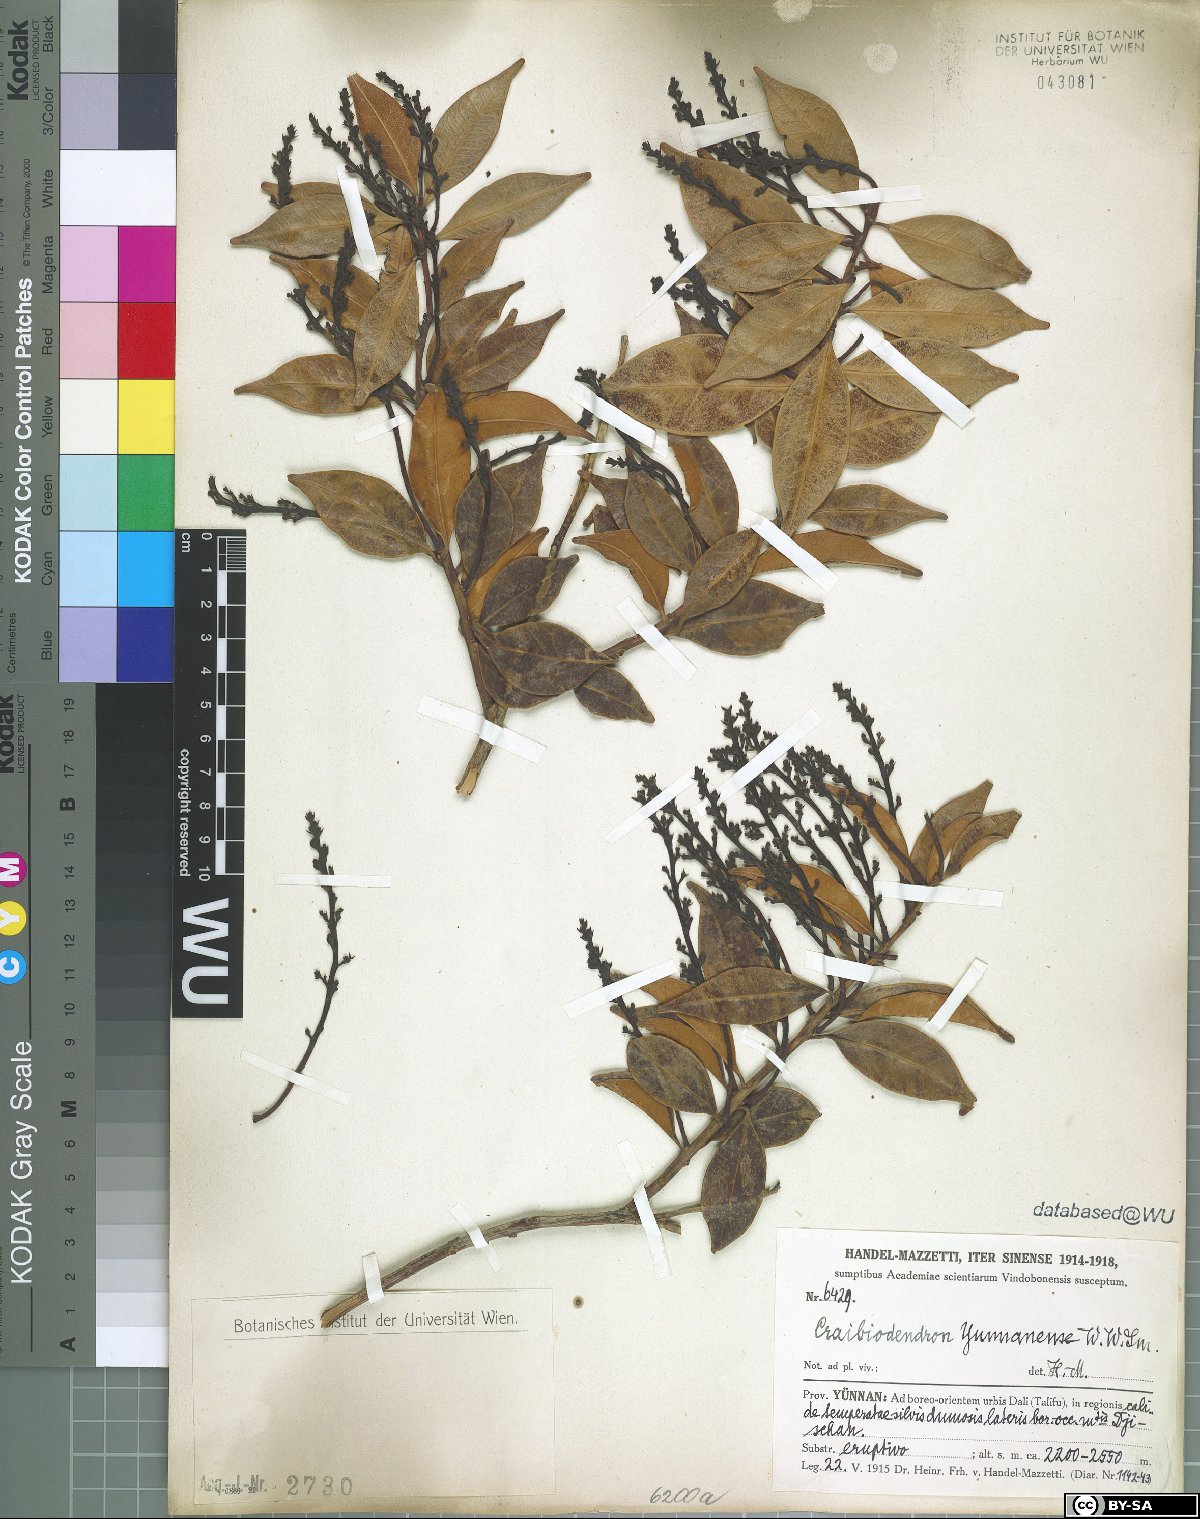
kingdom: Plantae
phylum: Tracheophyta
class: Magnoliopsida
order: Ericales
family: Ericaceae
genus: Craibiodendron
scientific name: Craibiodendron yunnanense
